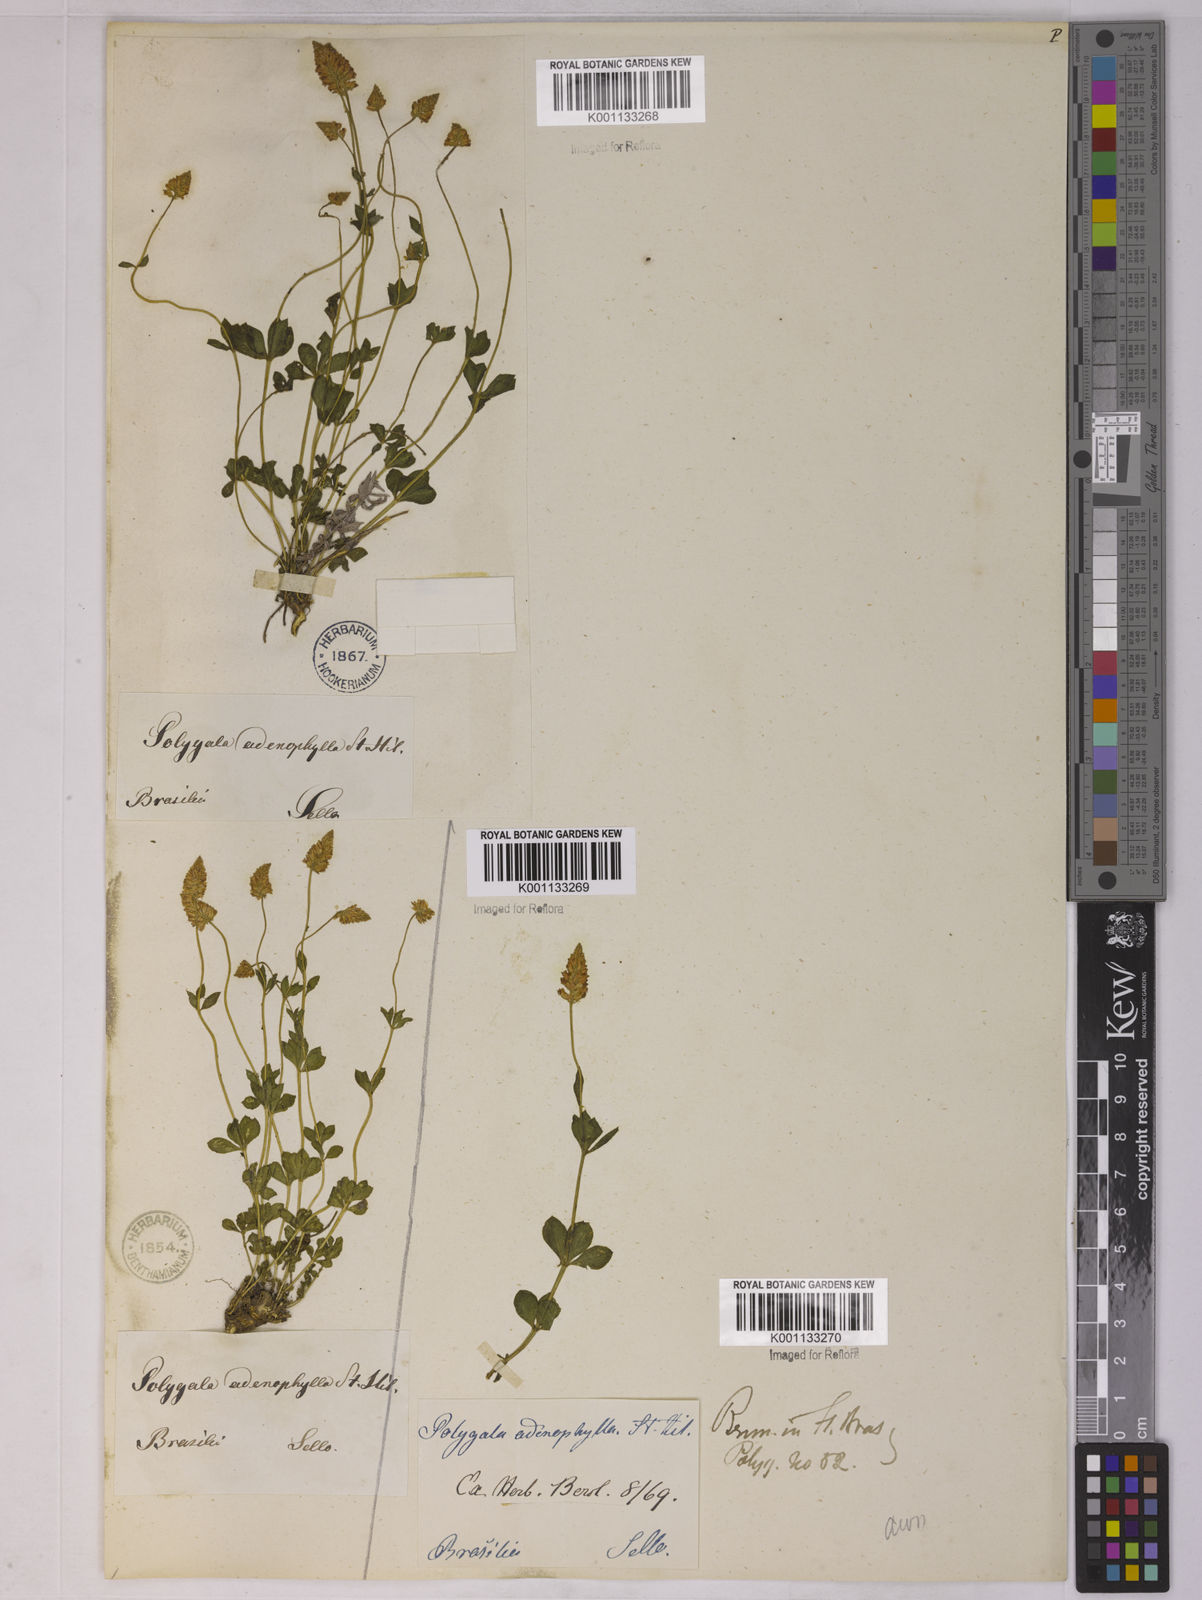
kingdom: Plantae
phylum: Tracheophyta
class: Magnoliopsida
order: Fabales
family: Polygalaceae
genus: Polygala
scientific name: Polygala adenophylla
